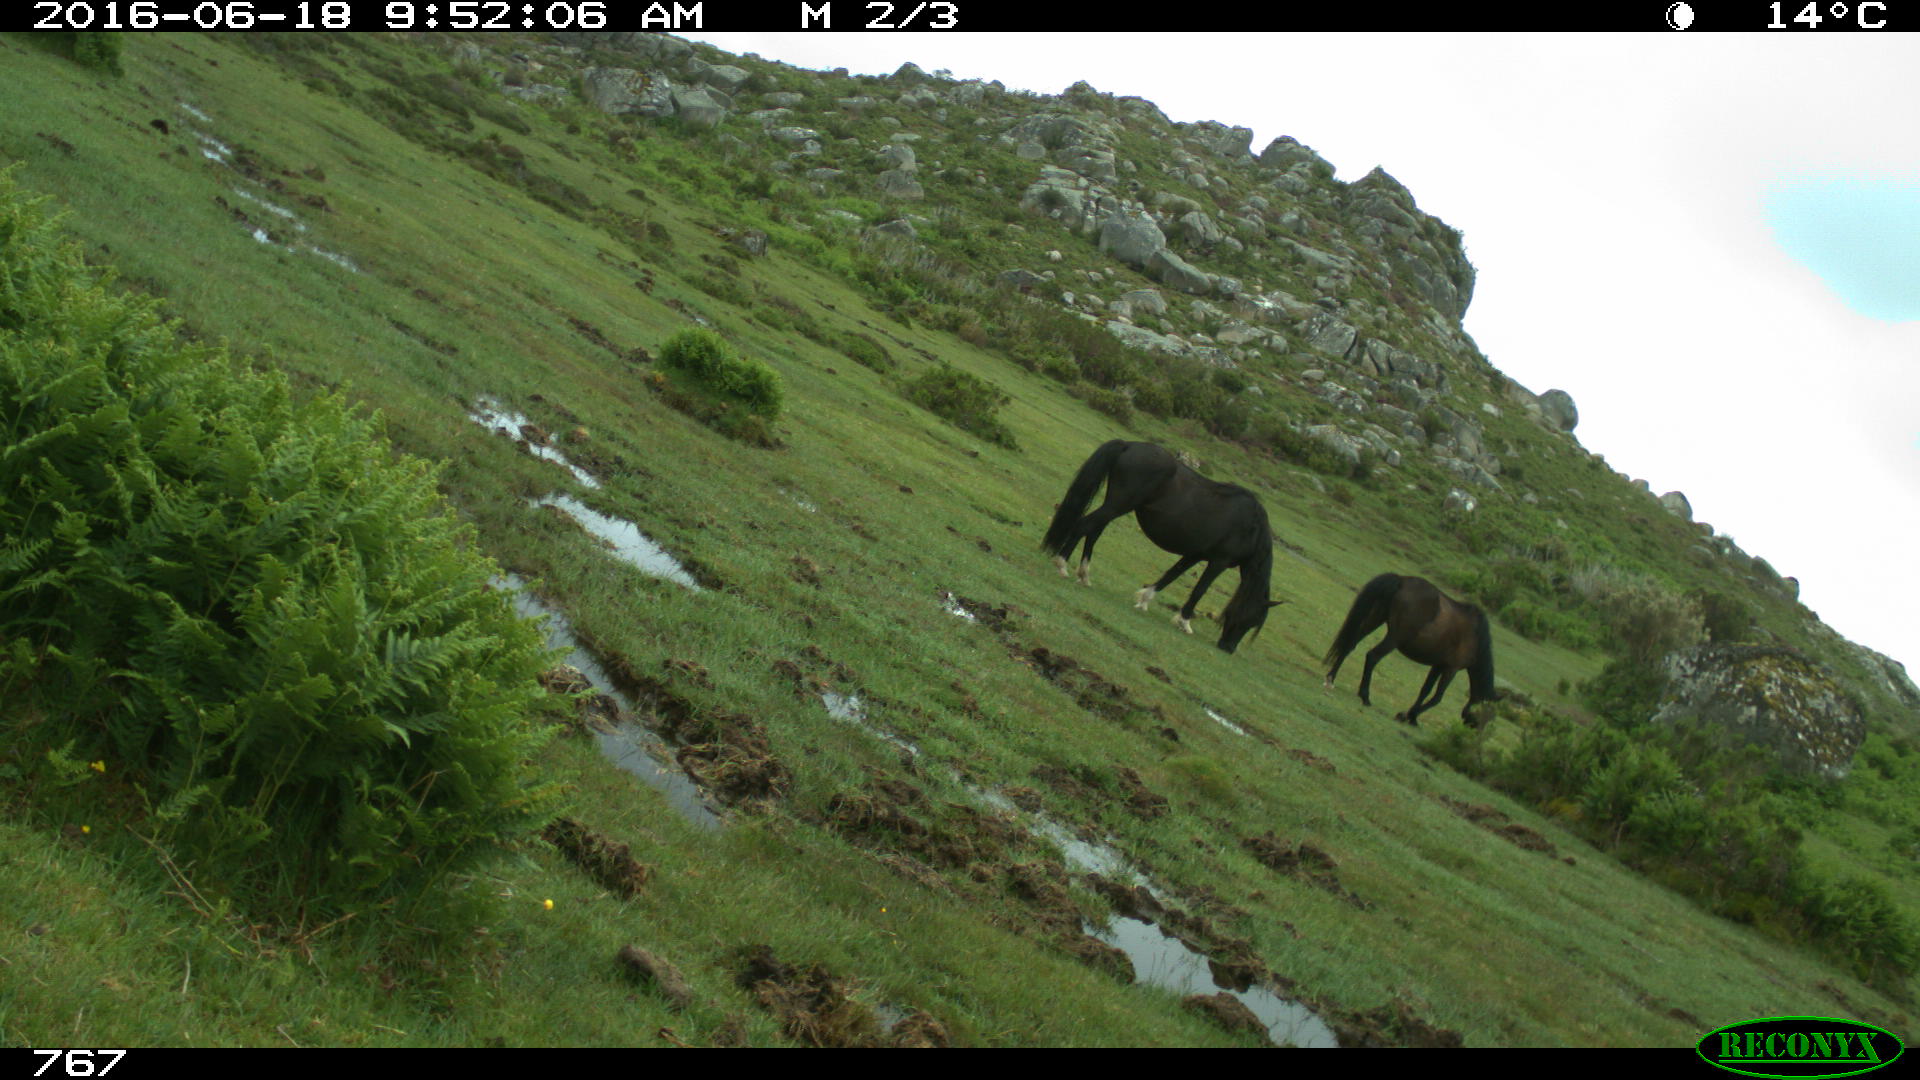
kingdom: Animalia
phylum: Chordata
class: Mammalia
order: Perissodactyla
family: Equidae
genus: Equus
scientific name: Equus caballus
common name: Horse
